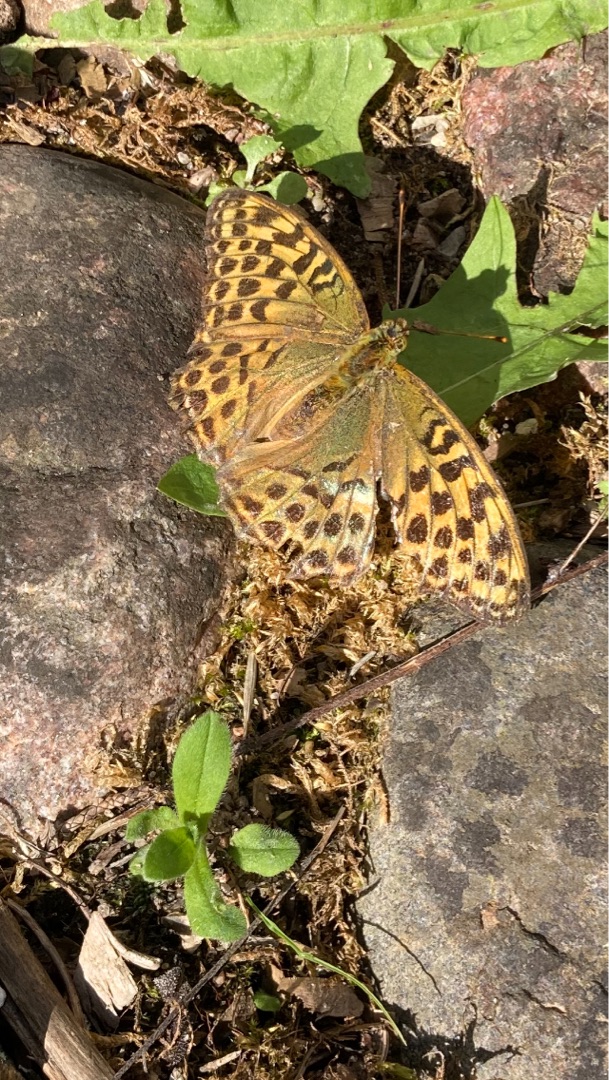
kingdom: Animalia
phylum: Arthropoda
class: Insecta
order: Lepidoptera
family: Nymphalidae
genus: Argynnis
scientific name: Argynnis paphia
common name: Kejserkåbe
